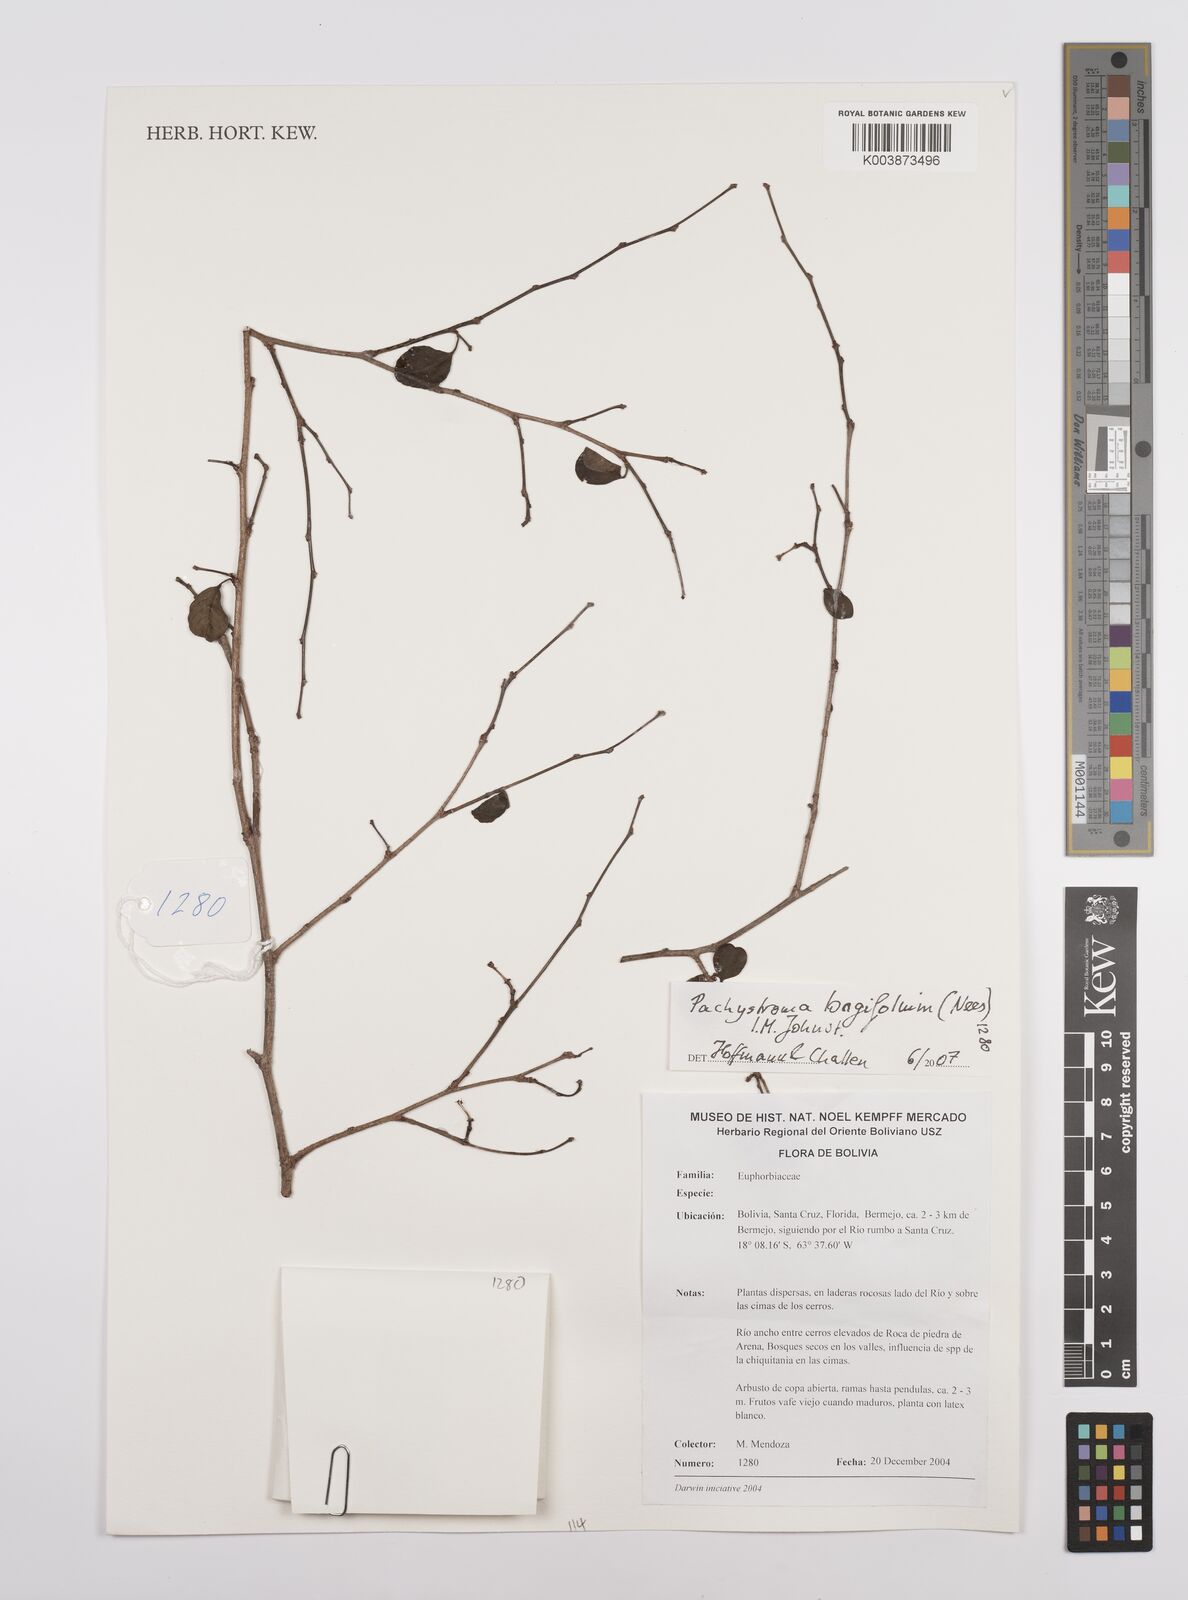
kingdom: Plantae
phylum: Tracheophyta
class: Magnoliopsida
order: Malpighiales
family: Euphorbiaceae
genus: Pachystroma
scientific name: Pachystroma longifolium
